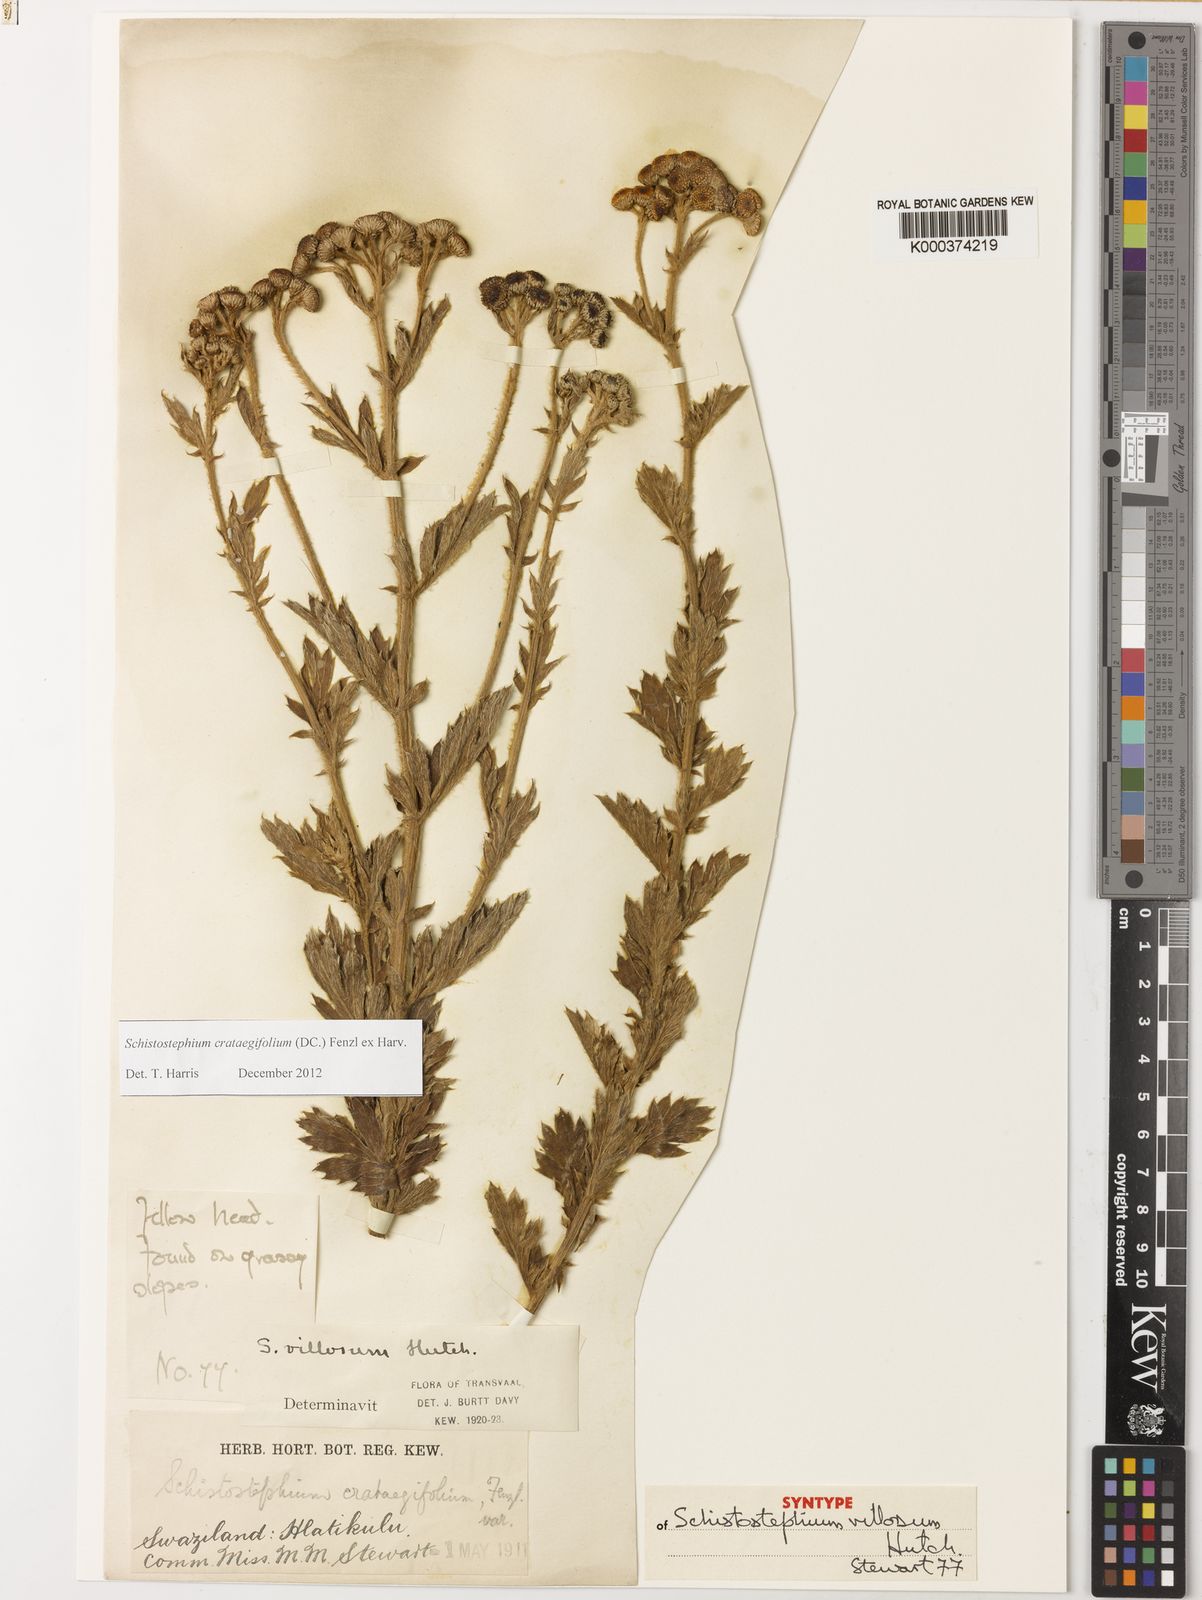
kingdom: Plantae
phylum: Tracheophyta
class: Magnoliopsida
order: Asterales
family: Asteraceae
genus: Schistostephium
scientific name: Schistostephium crataegifolium
